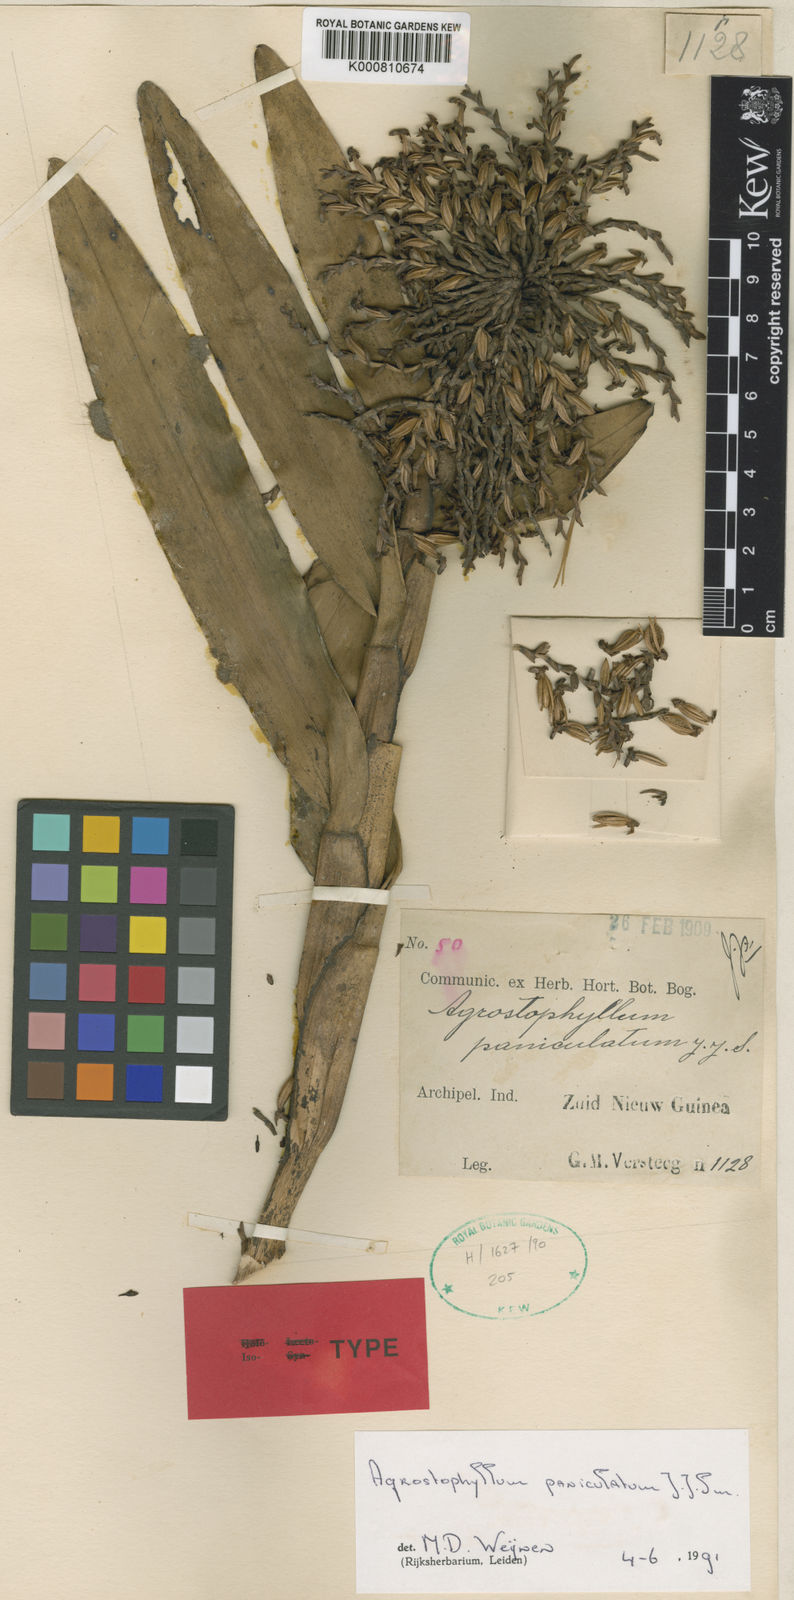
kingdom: Plantae
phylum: Tracheophyta
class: Liliopsida
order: Asparagales
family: Orchidaceae
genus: Agrostophyllum
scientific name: Agrostophyllum paniculatum
